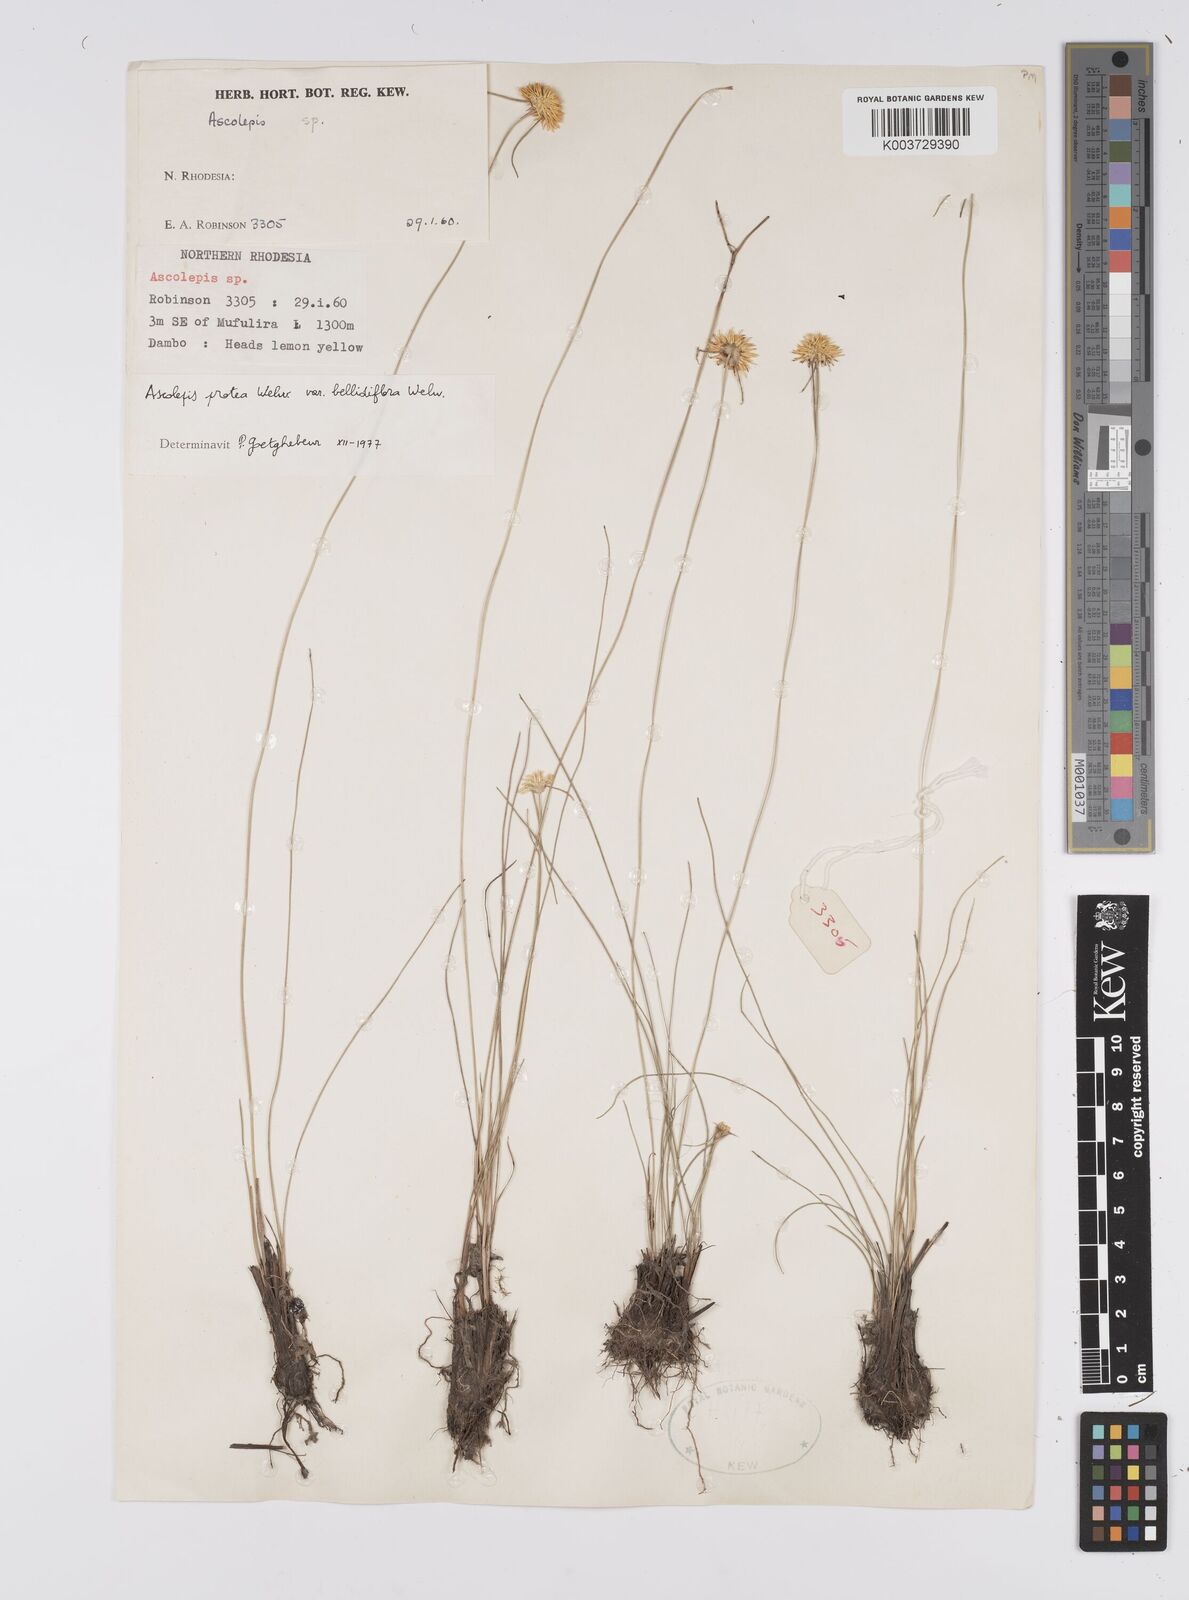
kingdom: Plantae
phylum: Tracheophyta
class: Liliopsida
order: Poales
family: Cyperaceae
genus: Cyperus
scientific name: Cyperus proteus
